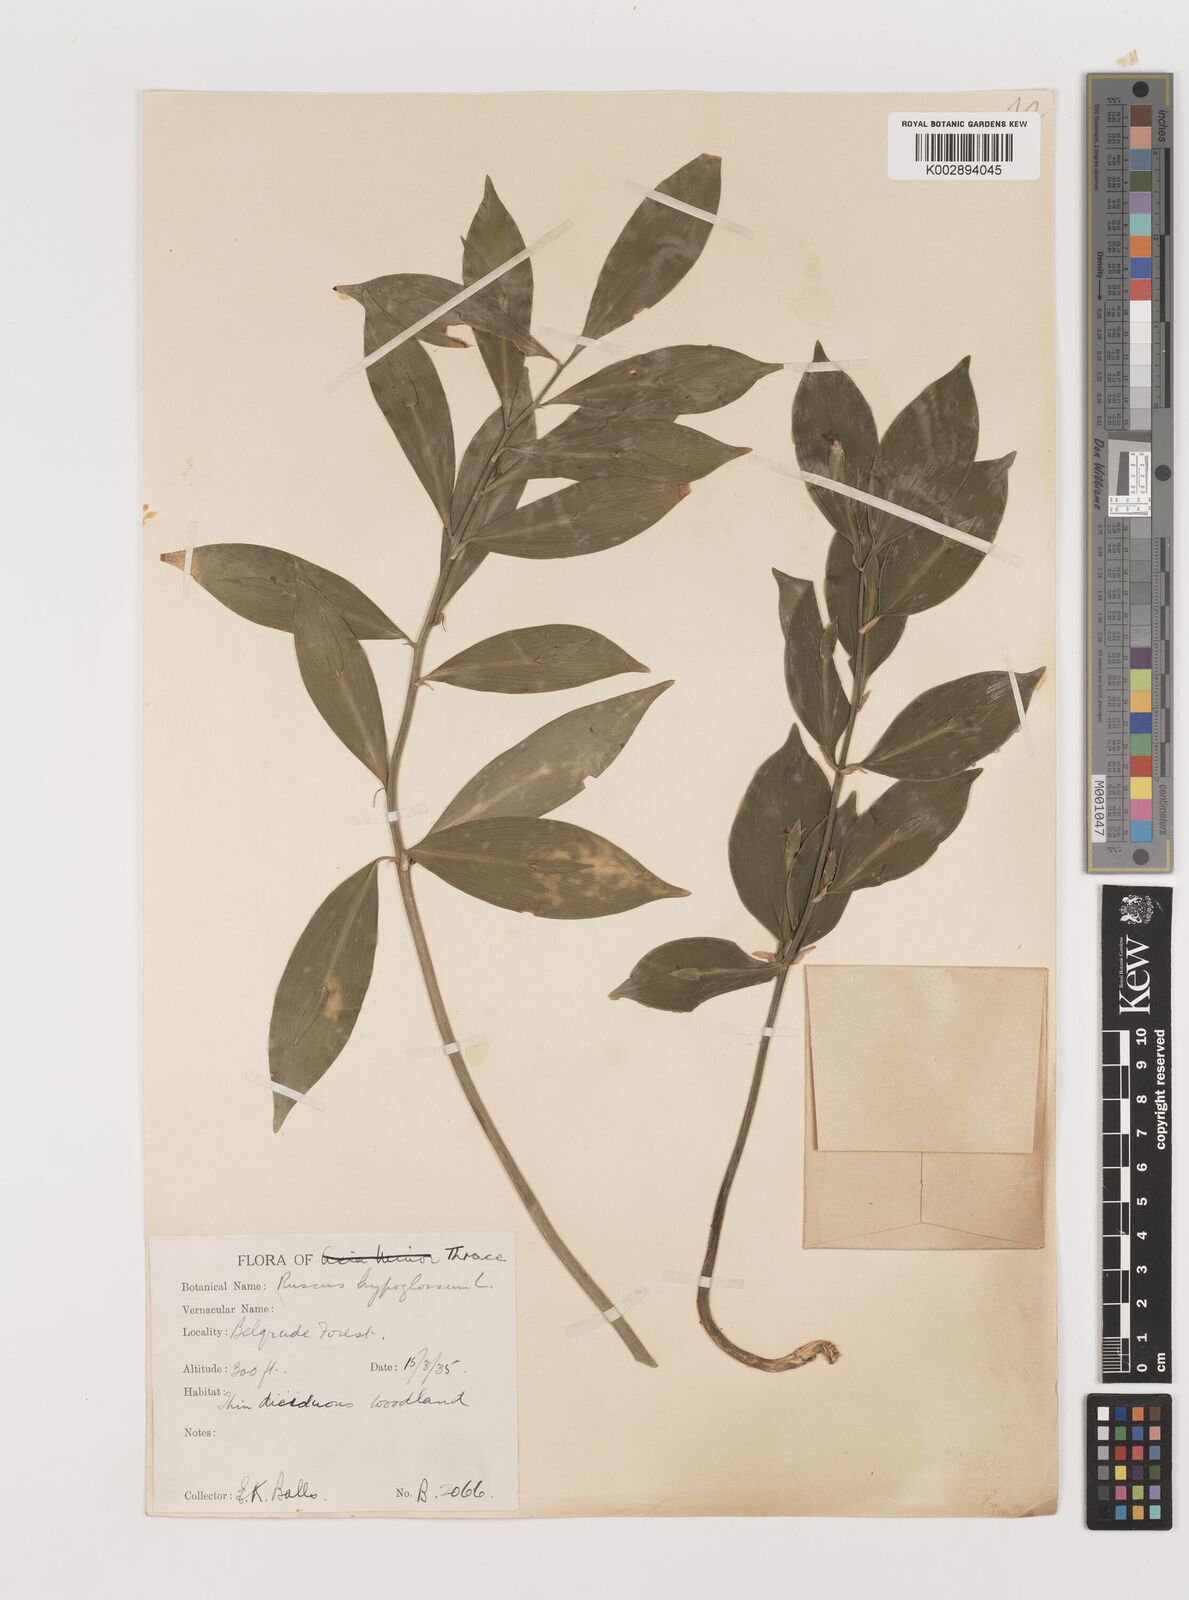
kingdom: Plantae
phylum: Tracheophyta
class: Liliopsida
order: Asparagales
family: Asparagaceae
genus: Ruscus
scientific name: Ruscus hypoglossum
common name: Spineless butcher's-broom
